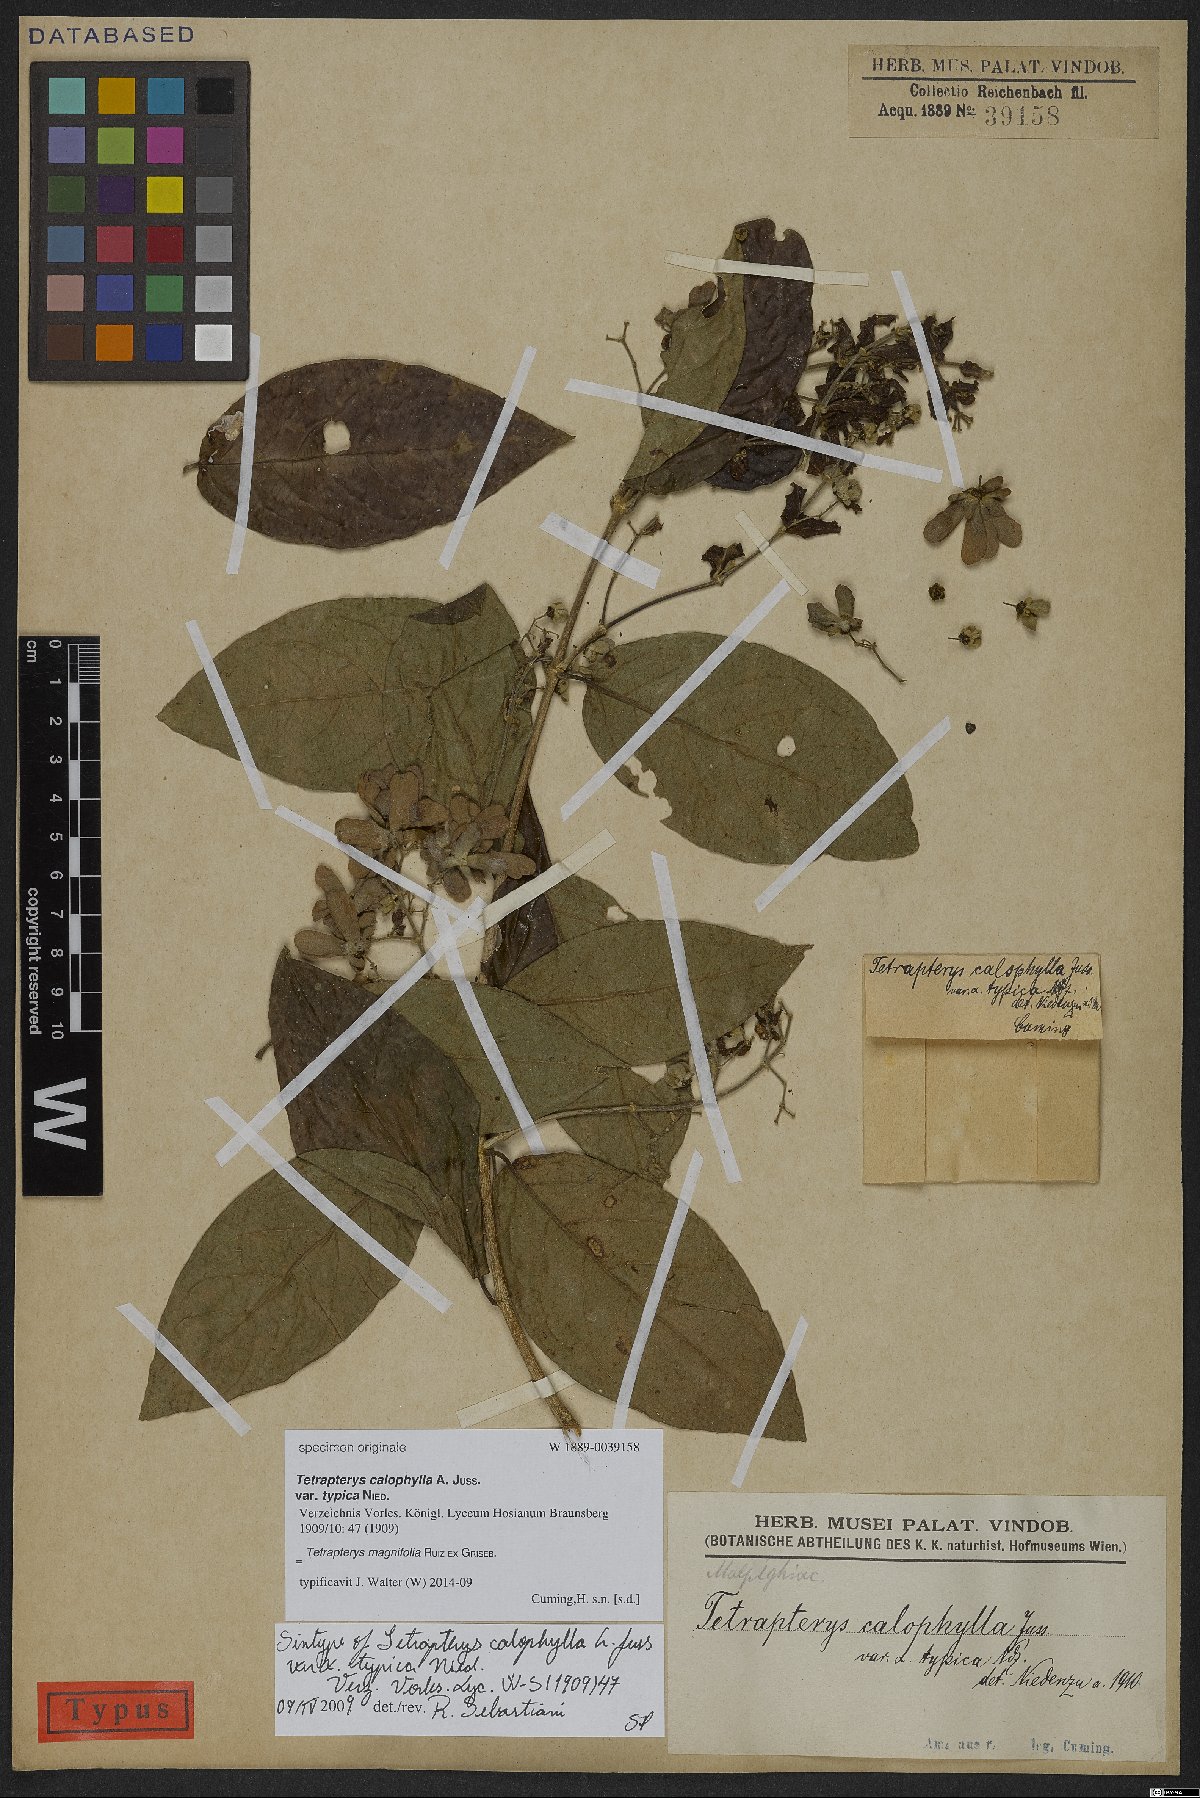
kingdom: Plantae
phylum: Tracheophyta
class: Magnoliopsida
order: Malpighiales
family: Malpighiaceae
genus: Tetrapterys
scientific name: Tetrapterys magnifolia
